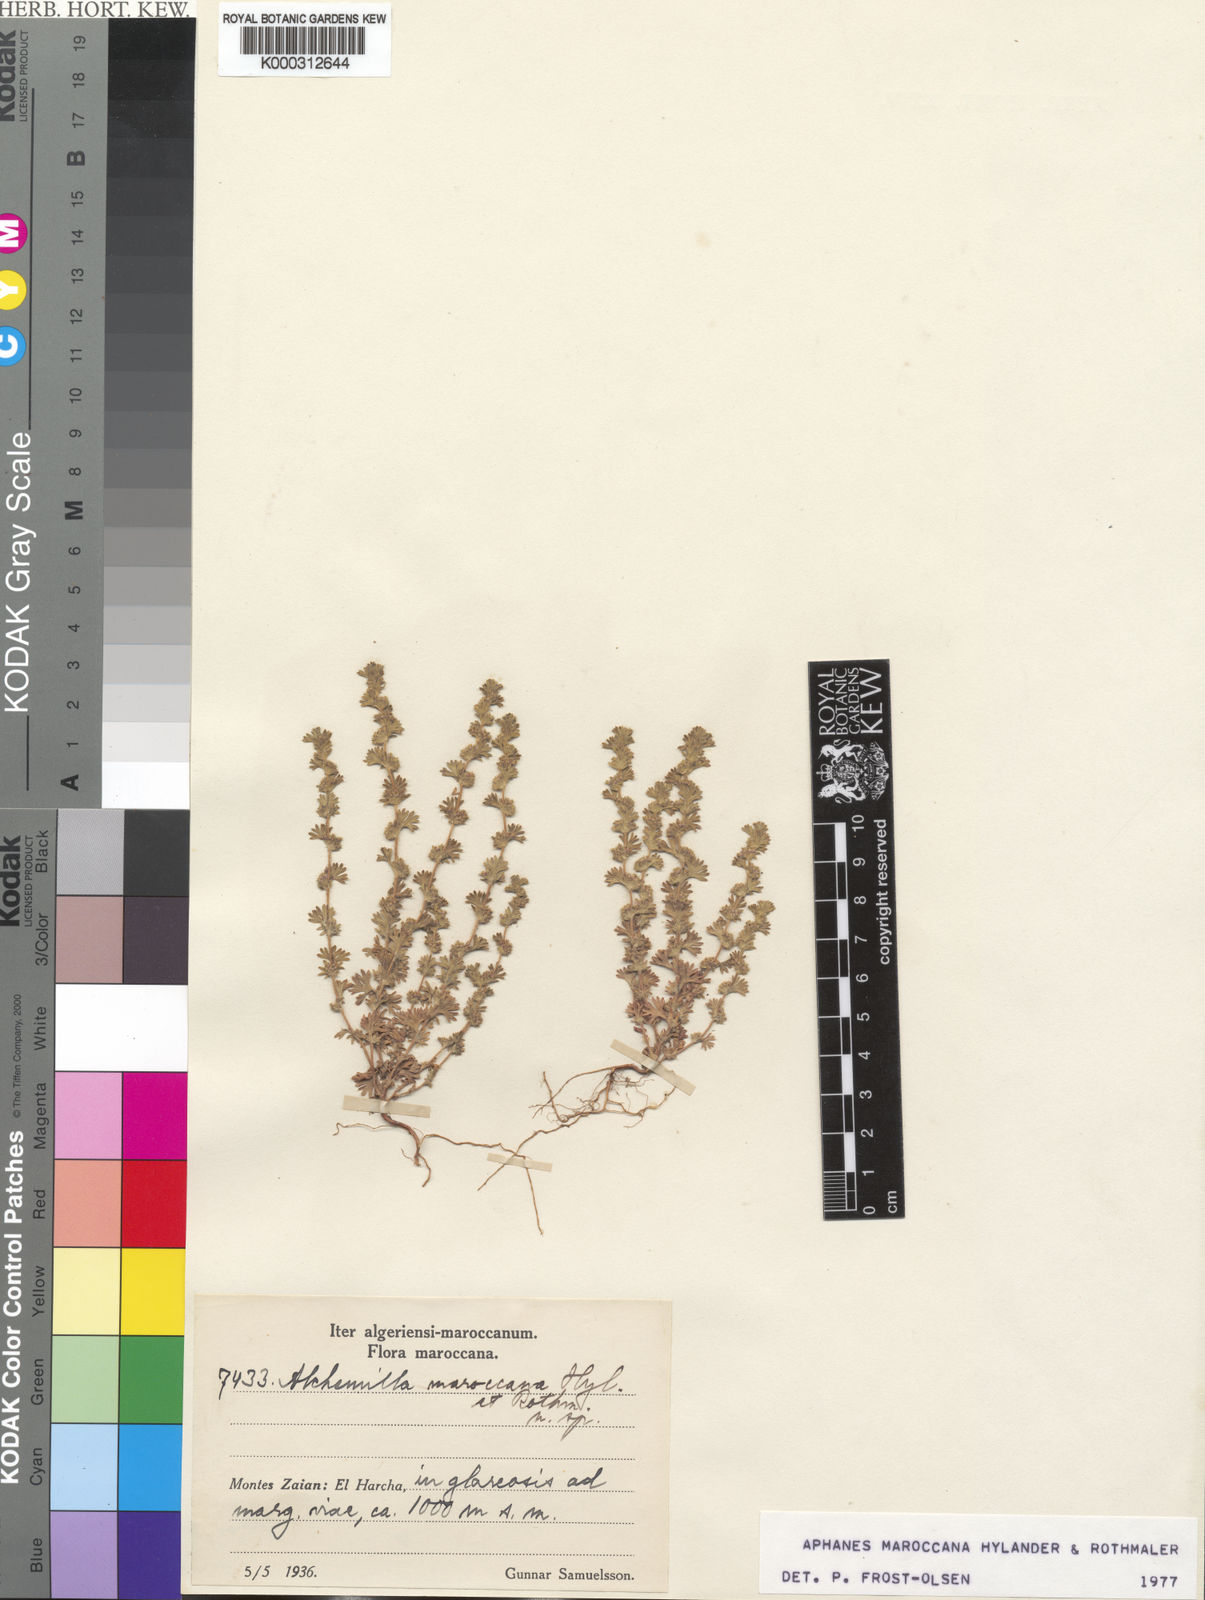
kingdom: Plantae
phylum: Tracheophyta
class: Magnoliopsida
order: Rosales
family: Rosaceae
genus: Alchemilla
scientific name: Alchemilla
